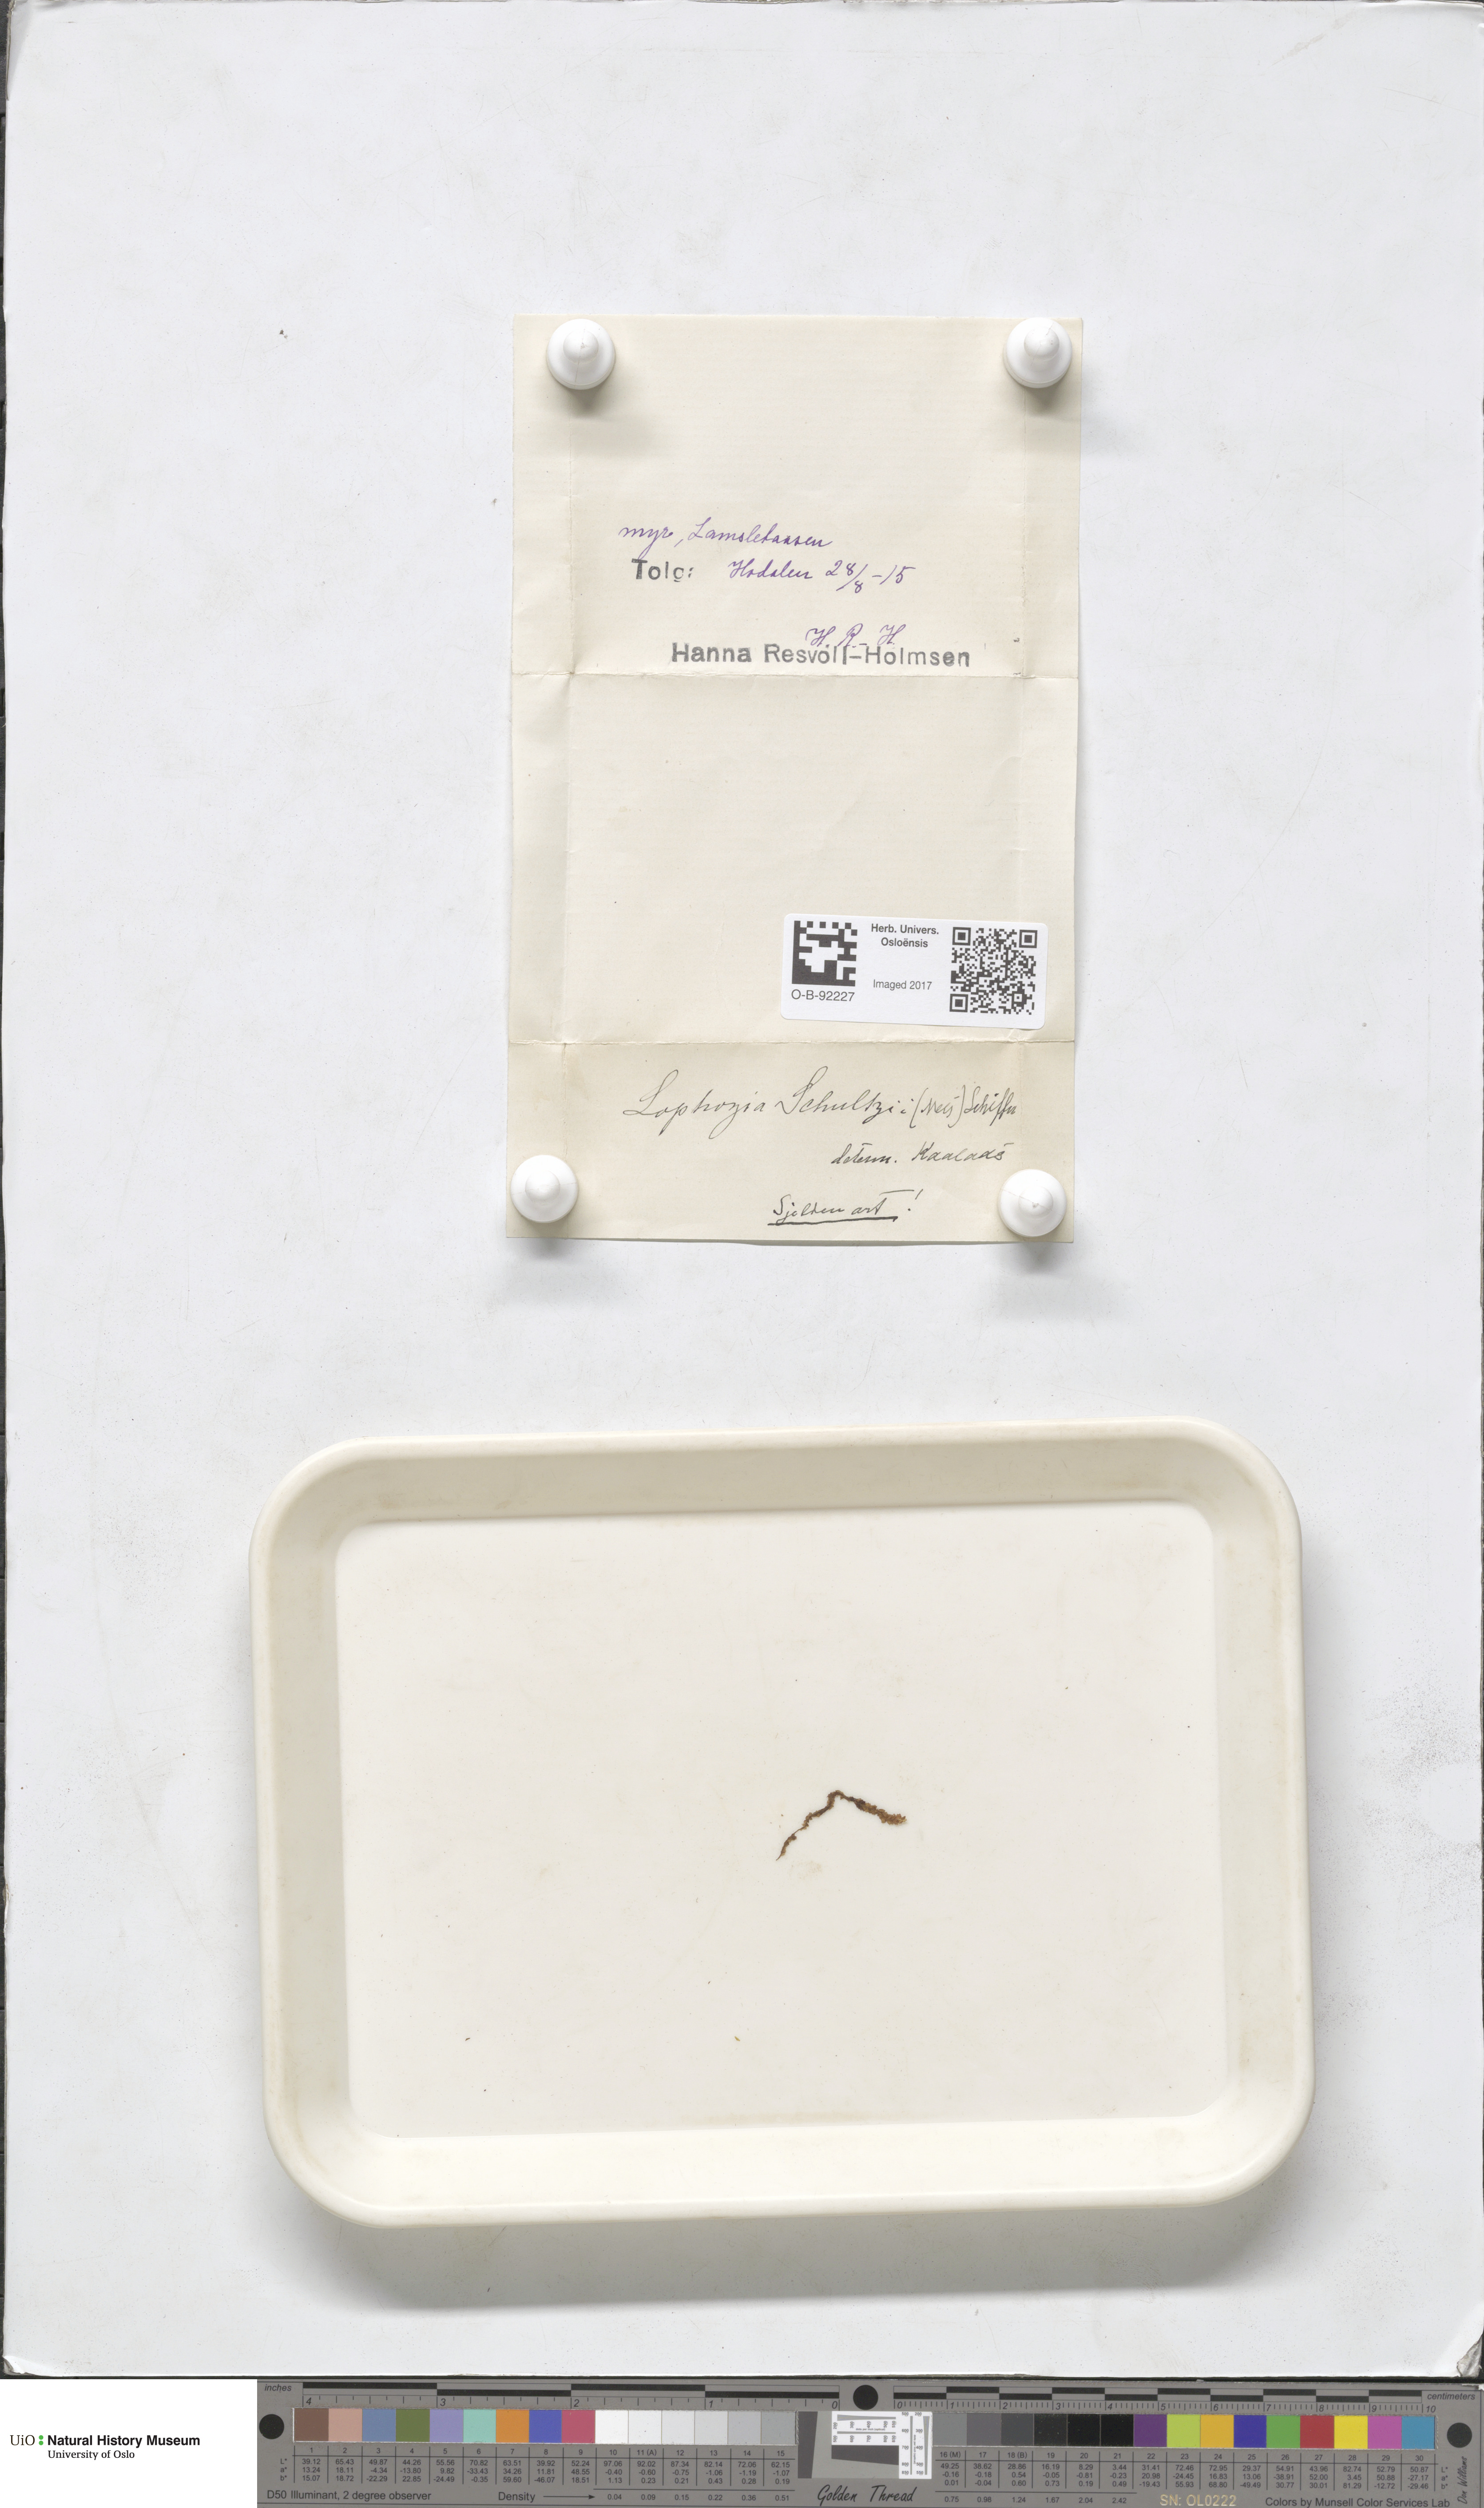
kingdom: Plantae
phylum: Marchantiophyta
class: Jungermanniopsida
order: Jungermanniales
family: Jungermanniaceae
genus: Mesoptychia
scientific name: Mesoptychia rutheana
